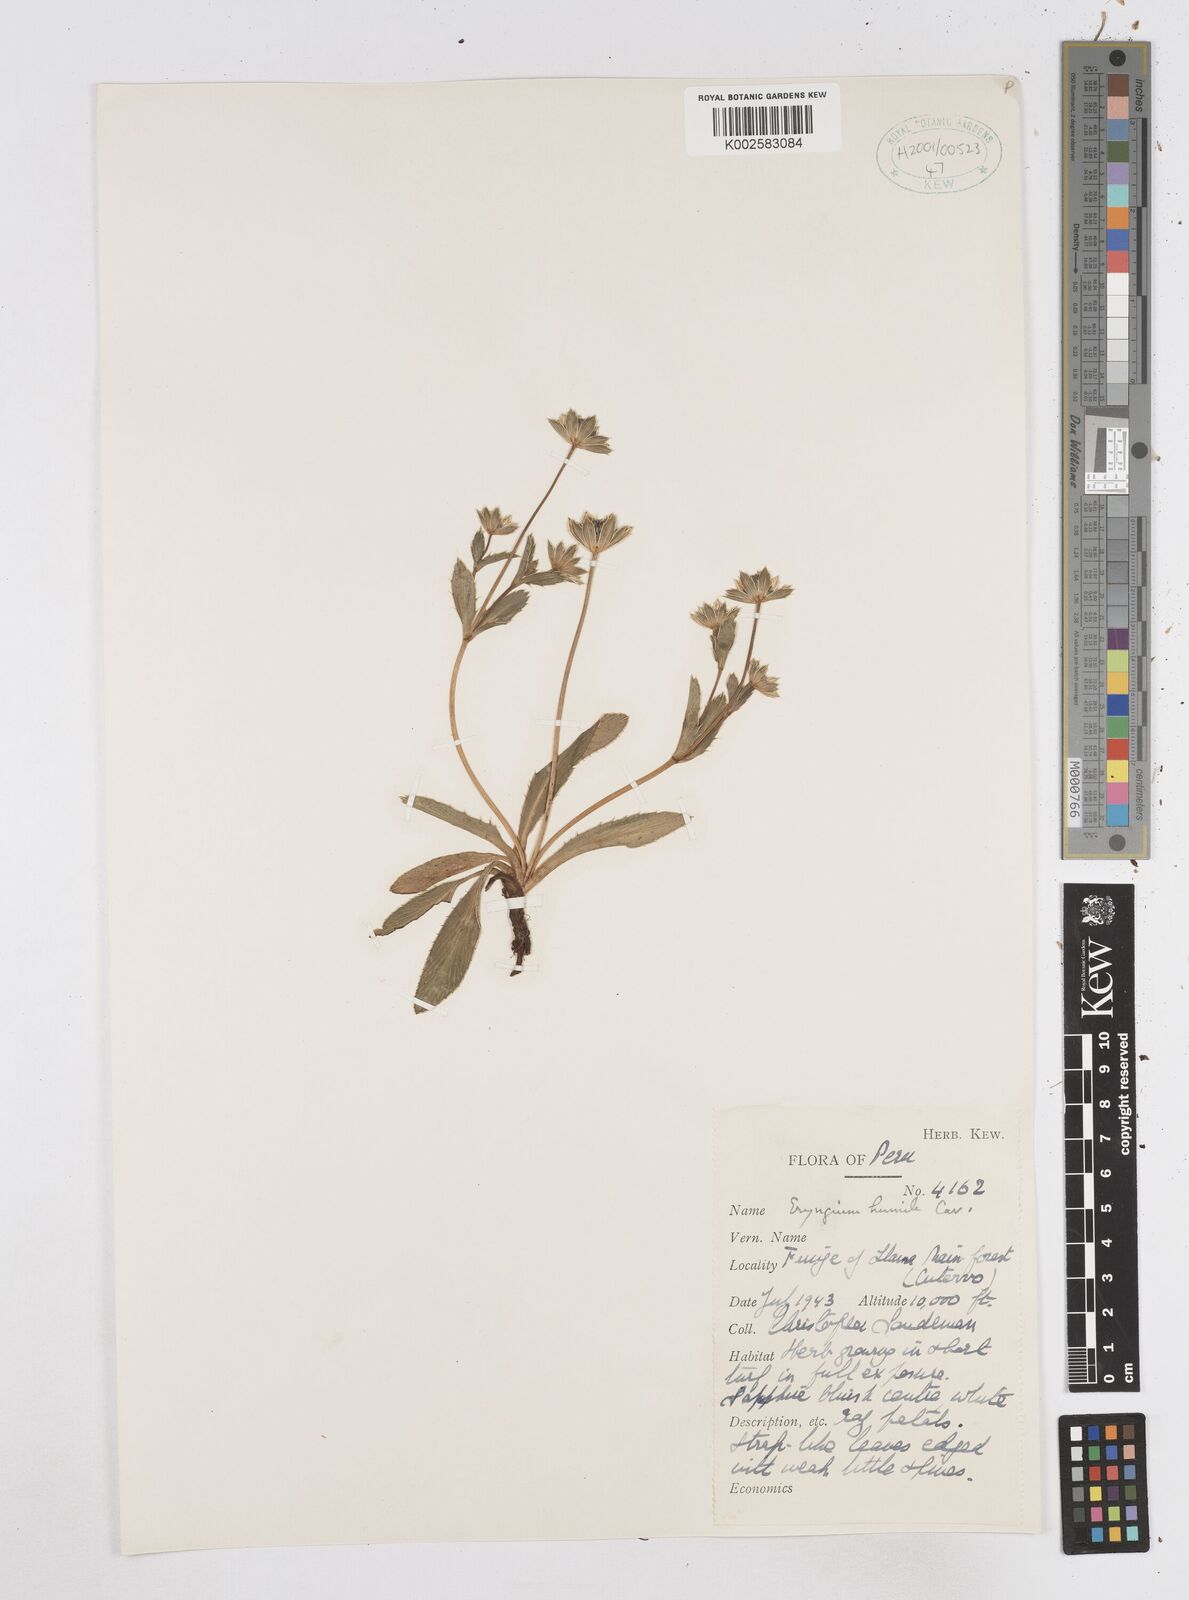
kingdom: Plantae
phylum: Tracheophyta
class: Magnoliopsida
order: Apiales
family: Apiaceae
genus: Eryngium
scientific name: Eryngium humile
